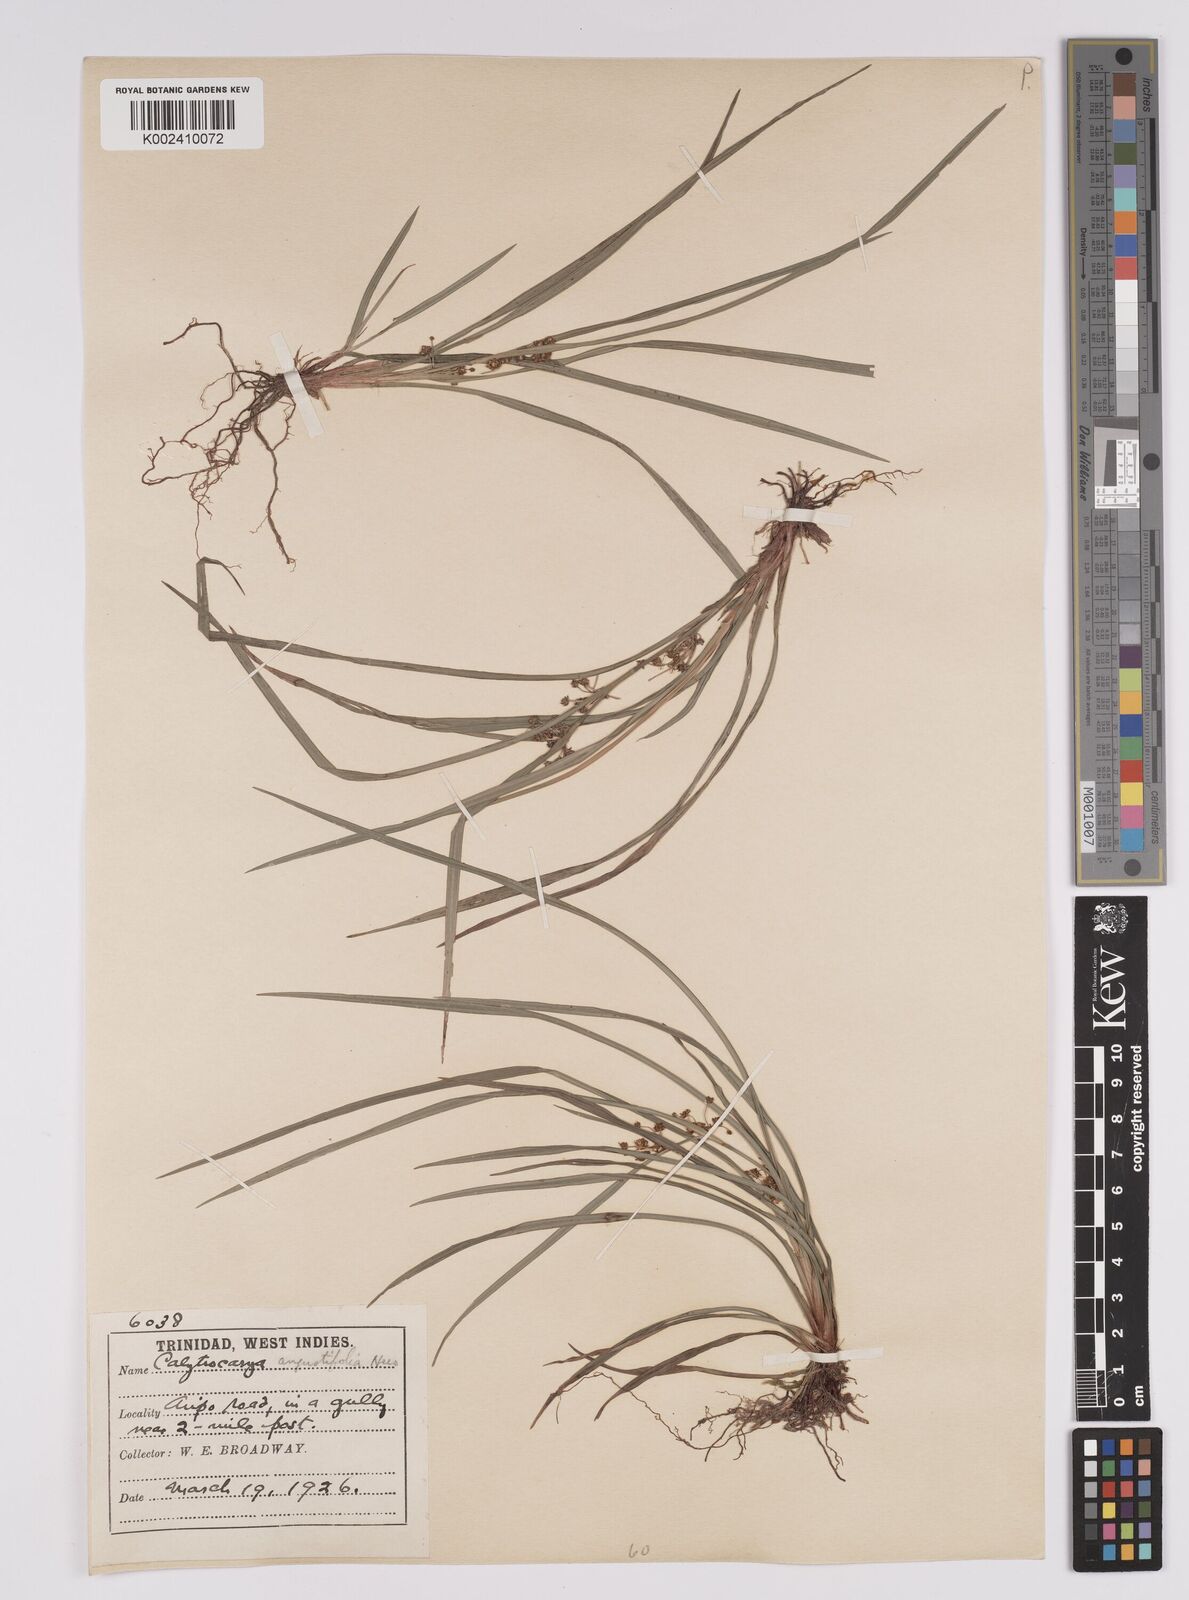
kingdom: Plantae
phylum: Tracheophyta
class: Liliopsida
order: Poales
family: Cyperaceae
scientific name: Cyperaceae
